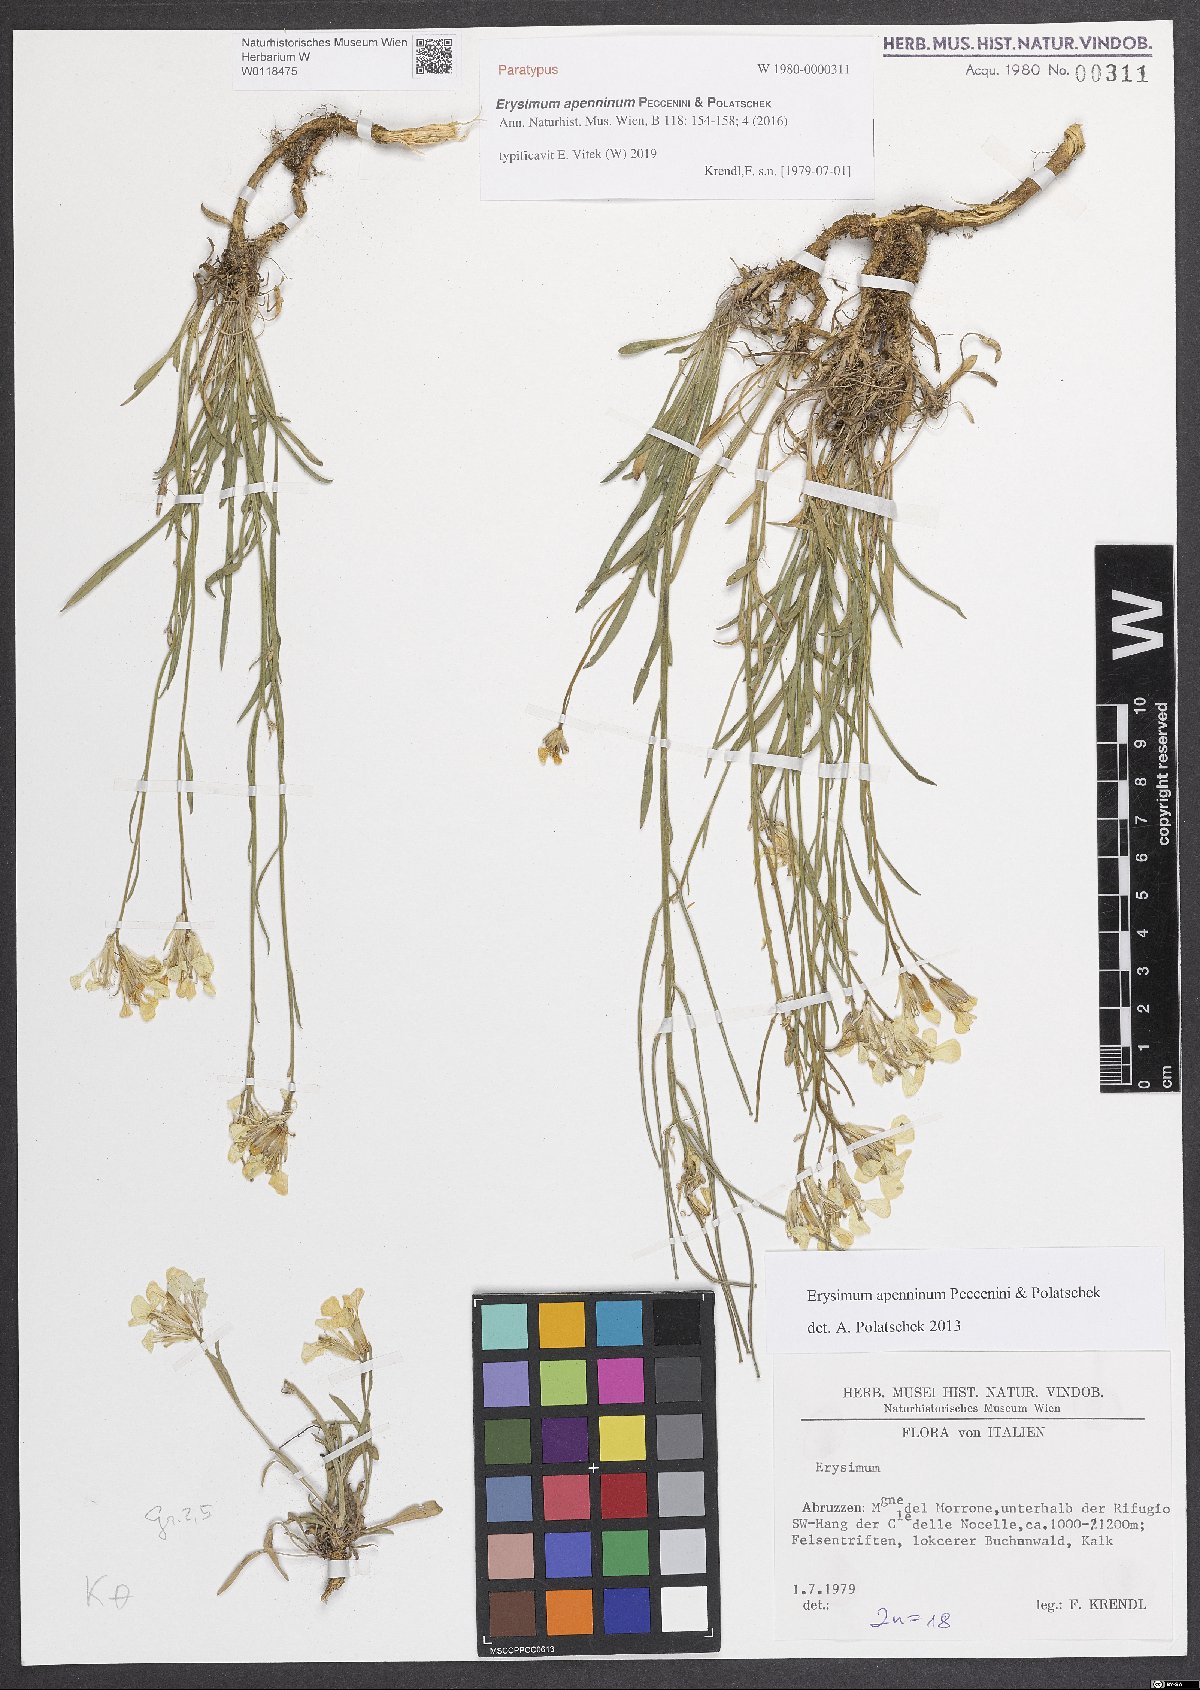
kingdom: Plantae
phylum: Tracheophyta
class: Magnoliopsida
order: Brassicales
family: Brassicaceae
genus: Erysimum
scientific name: Erysimum apenninum
